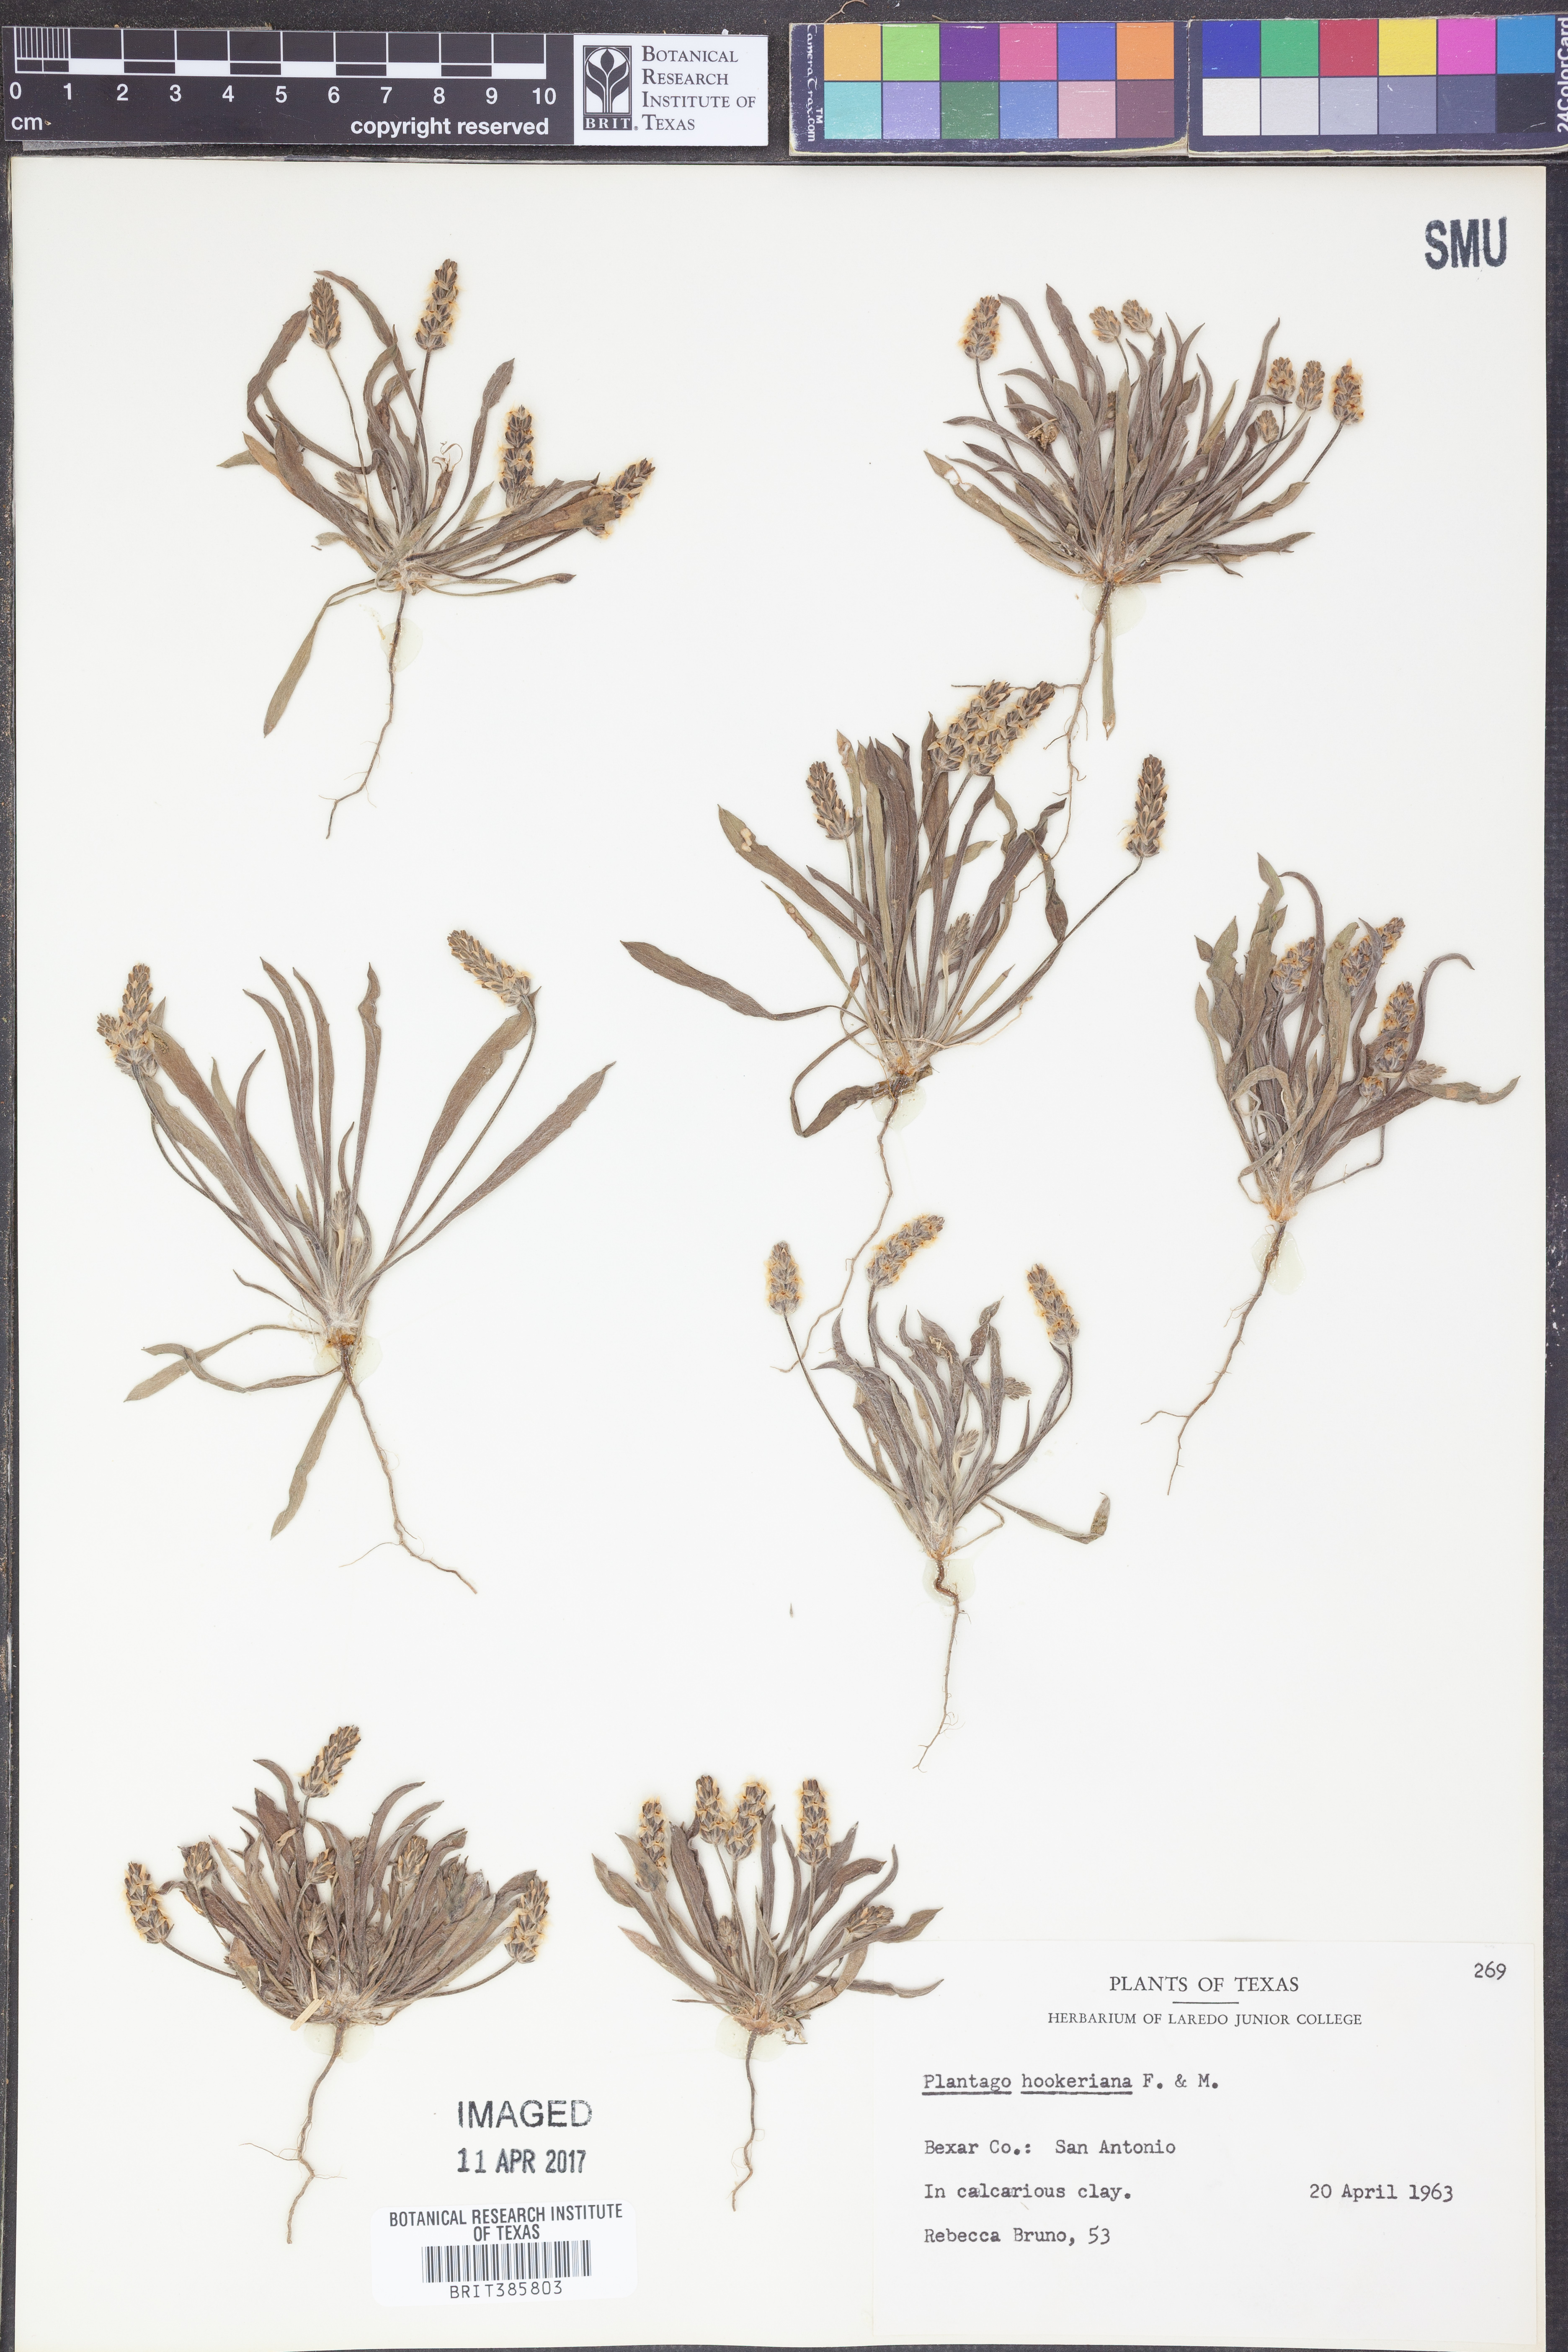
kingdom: Plantae
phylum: Tracheophyta
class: Magnoliopsida
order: Lamiales
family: Plantaginaceae
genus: Plantago
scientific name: Plantago hookeriana
